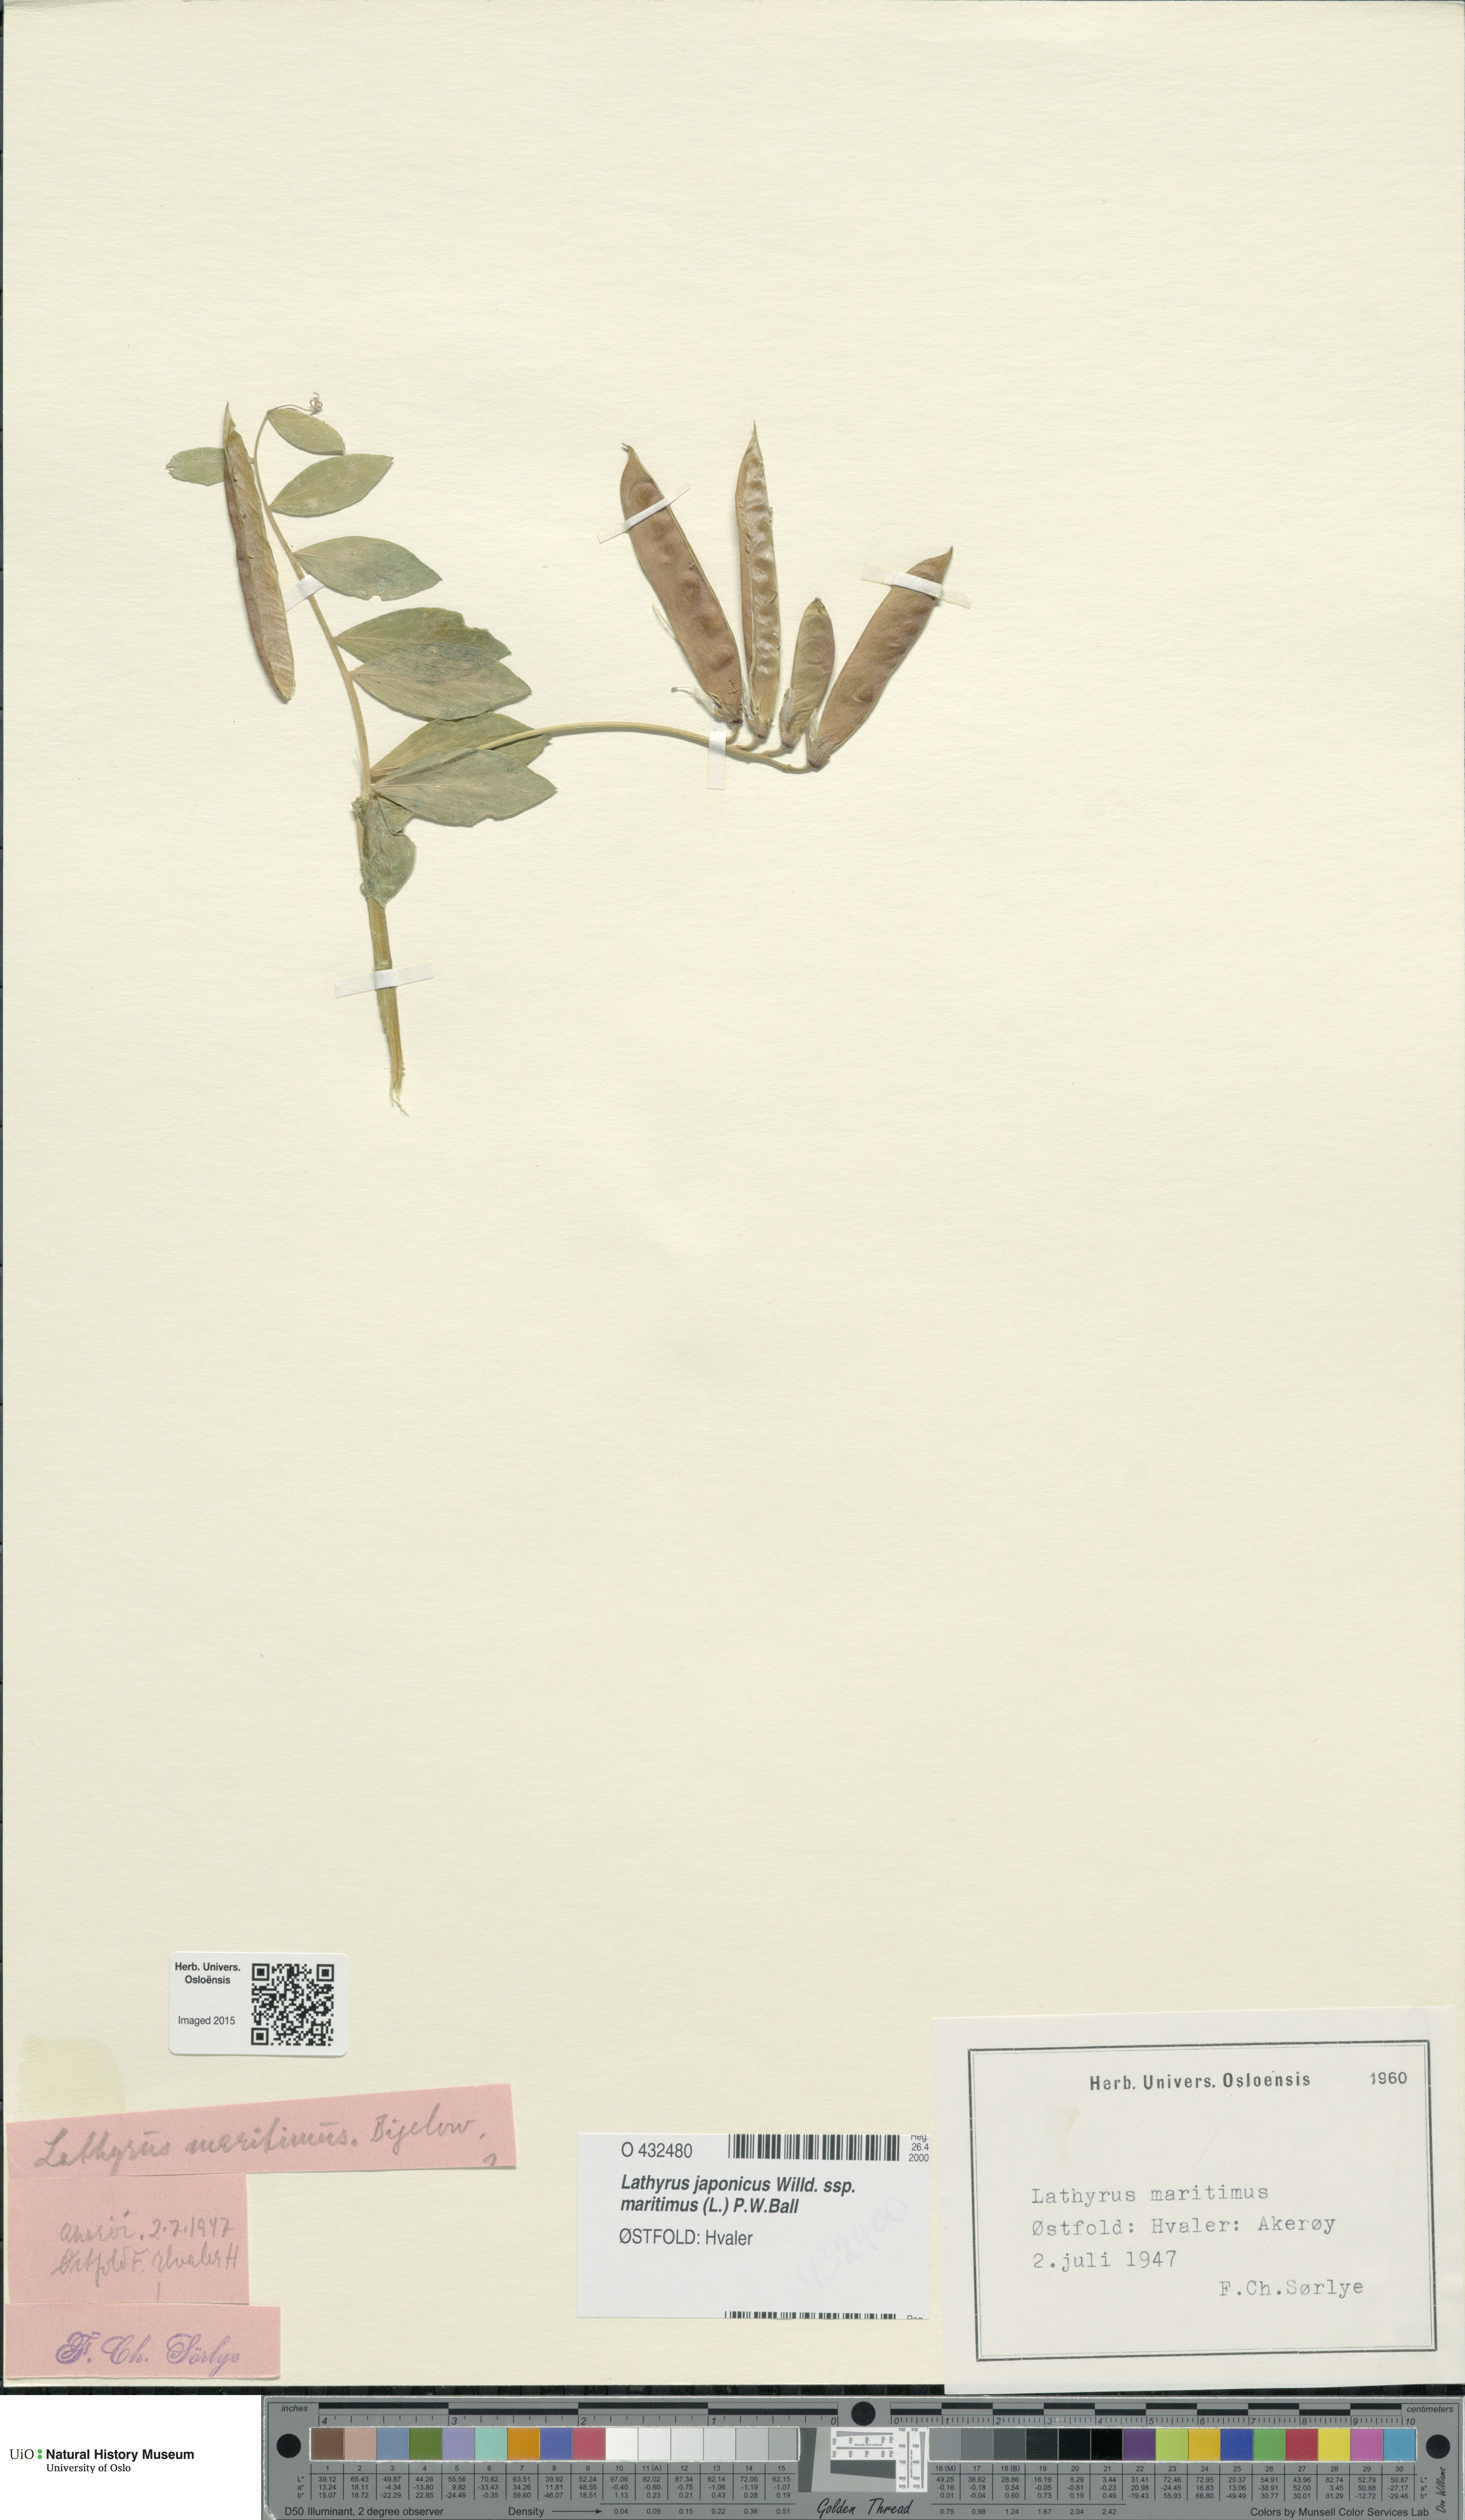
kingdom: Plantae
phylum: Tracheophyta
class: Magnoliopsida
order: Fabales
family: Fabaceae
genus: Lathyrus
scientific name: Lathyrus japonicus
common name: Sea pea
